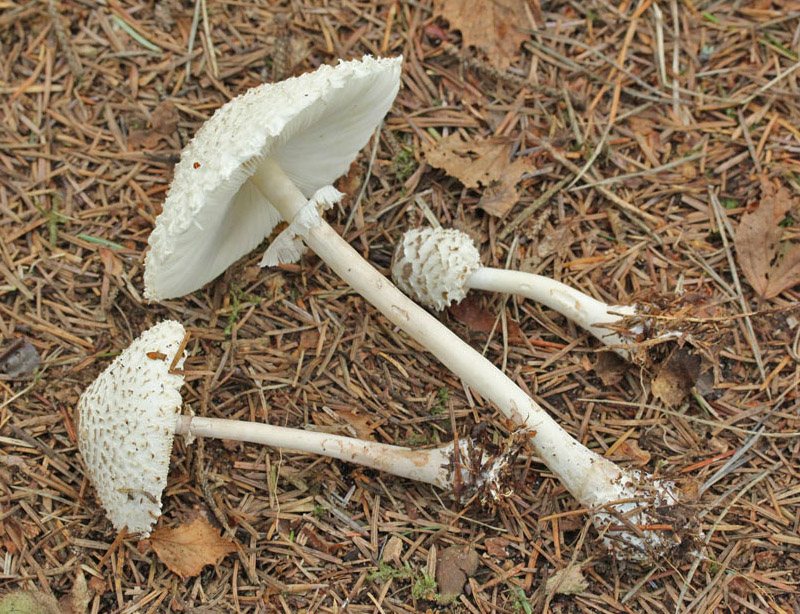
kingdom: Fungi
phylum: Basidiomycota
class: Agaricomycetes
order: Agaricales
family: Agaricaceae
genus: Leucoagaricus
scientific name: Leucoagaricus nympharum
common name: gran-silkehat
